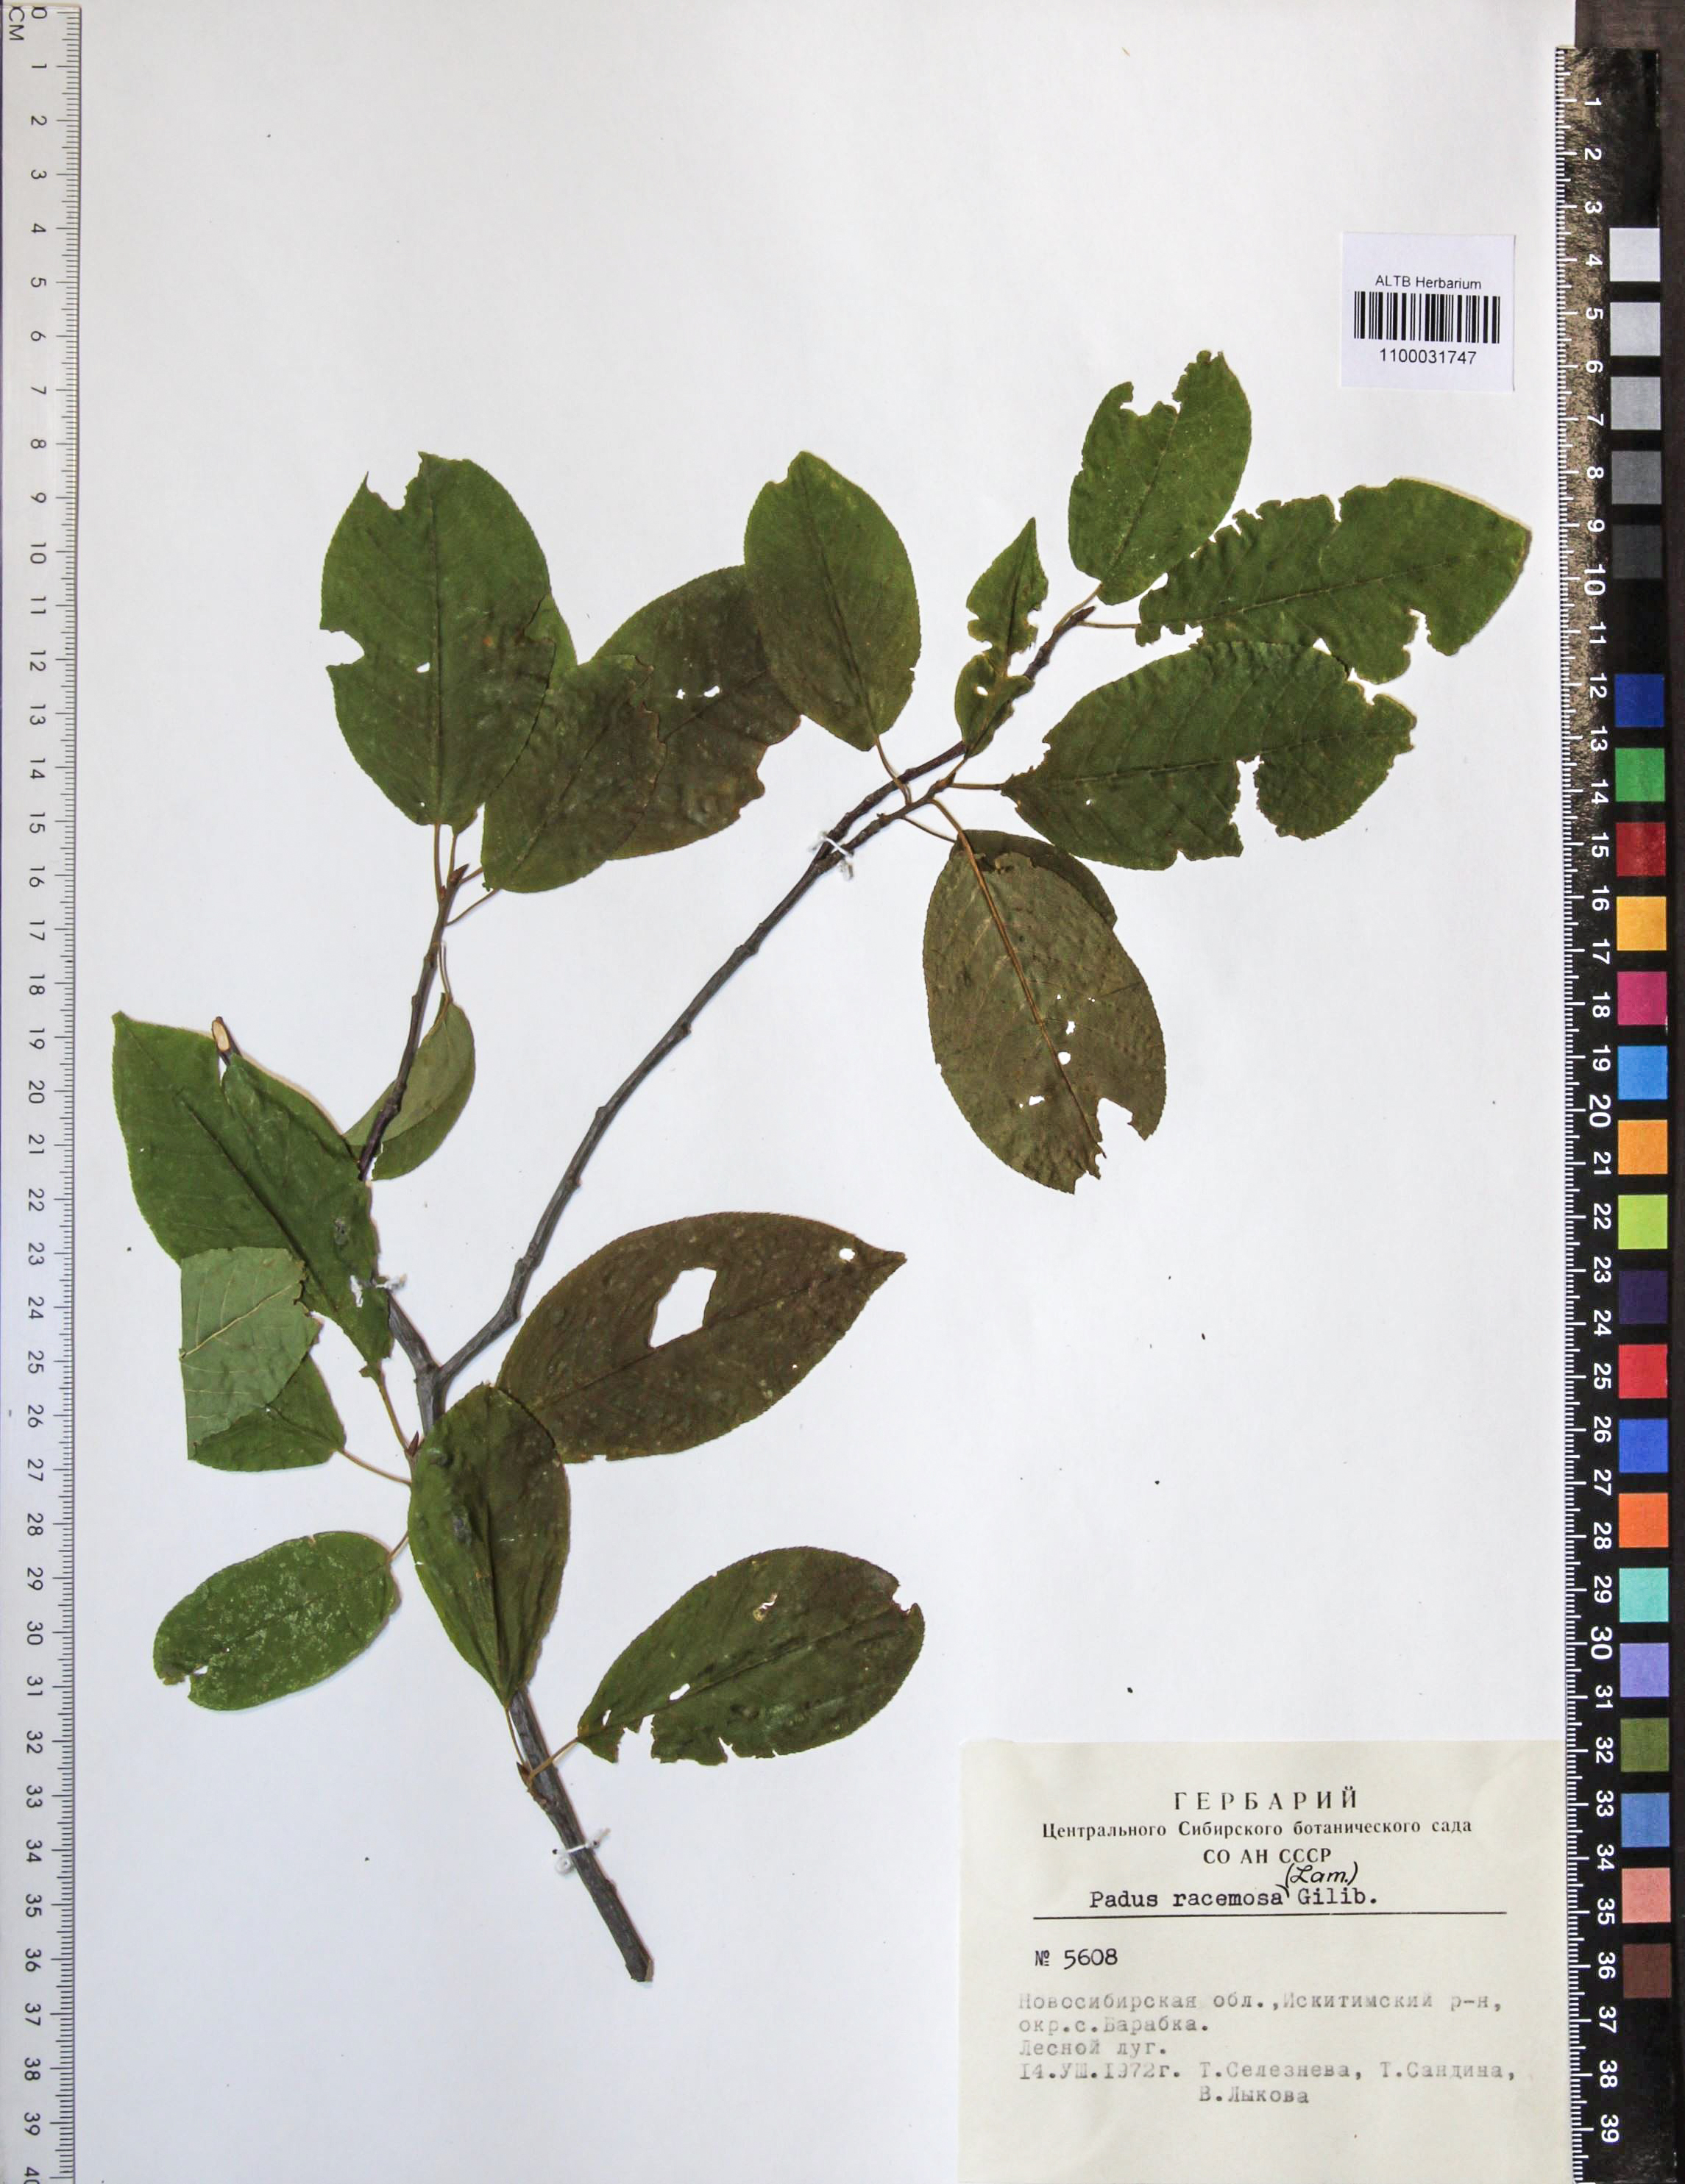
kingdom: Plantae
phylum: Tracheophyta
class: Magnoliopsida
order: Rosales
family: Rosaceae
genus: Prunus
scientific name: Prunus padus
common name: Bird cherry
